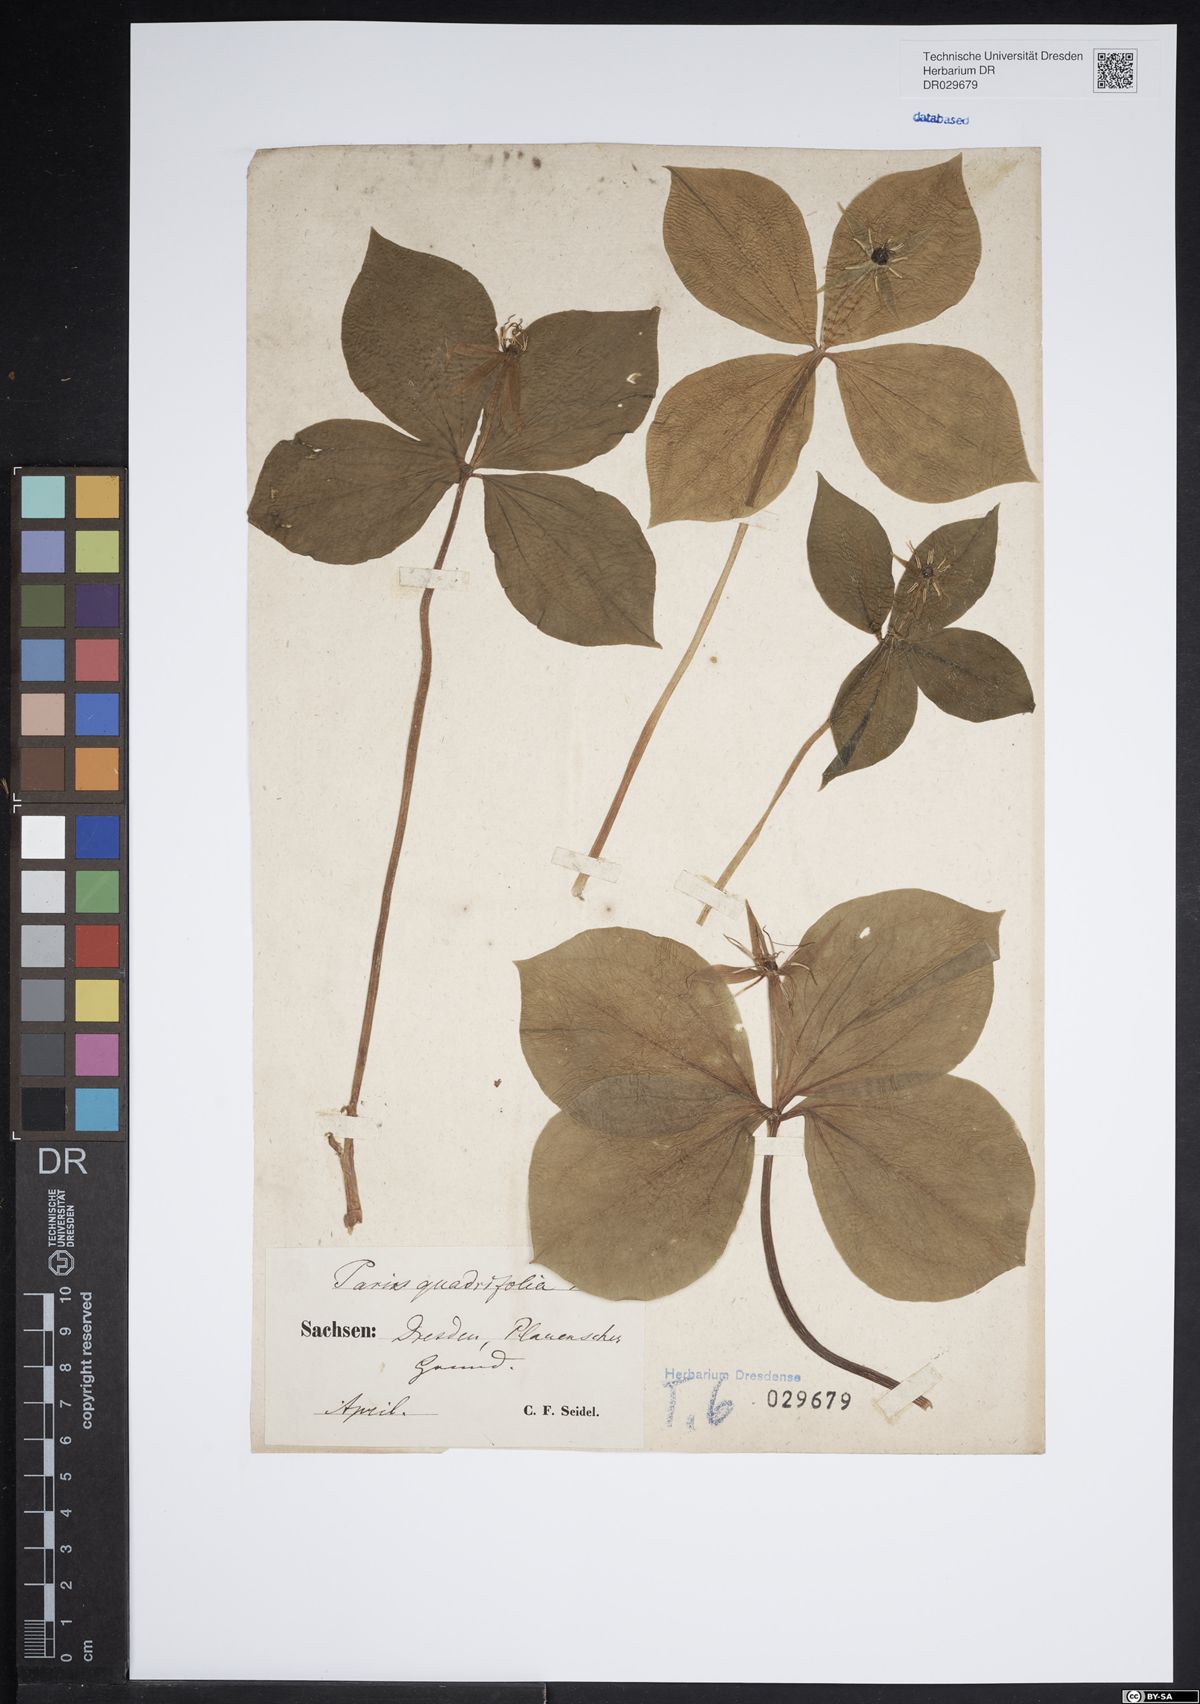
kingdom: Plantae
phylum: Tracheophyta
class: Liliopsida
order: Liliales
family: Melanthiaceae
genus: Paris
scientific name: Paris quadrifolia
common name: Herb-paris
